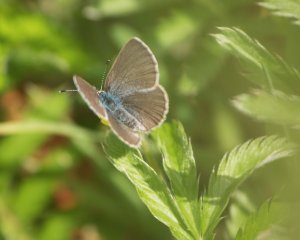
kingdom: Animalia
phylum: Arthropoda
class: Insecta
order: Lepidoptera
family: Lycaenidae
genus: Glaucopsyche
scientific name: Glaucopsyche lygdamus
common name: Silvery Blue
